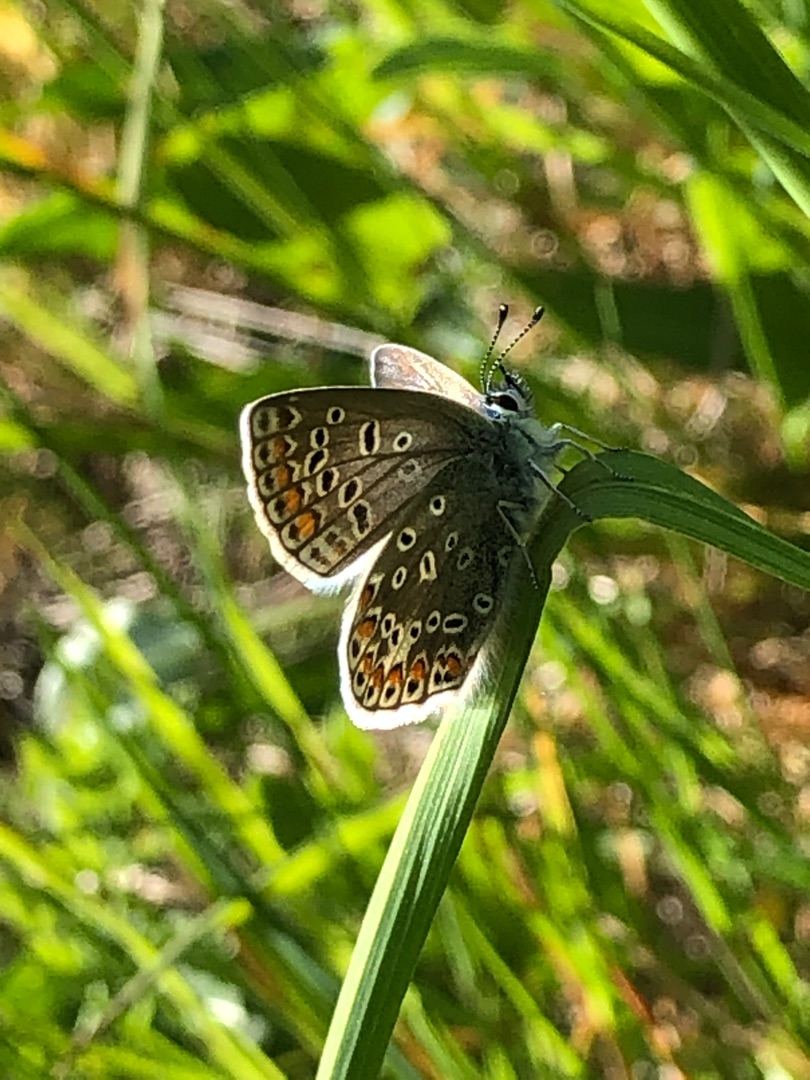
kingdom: Animalia
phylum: Arthropoda
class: Insecta
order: Lepidoptera
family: Lycaenidae
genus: Polyommatus
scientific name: Polyommatus icarus
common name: Almindelig blåfugl
